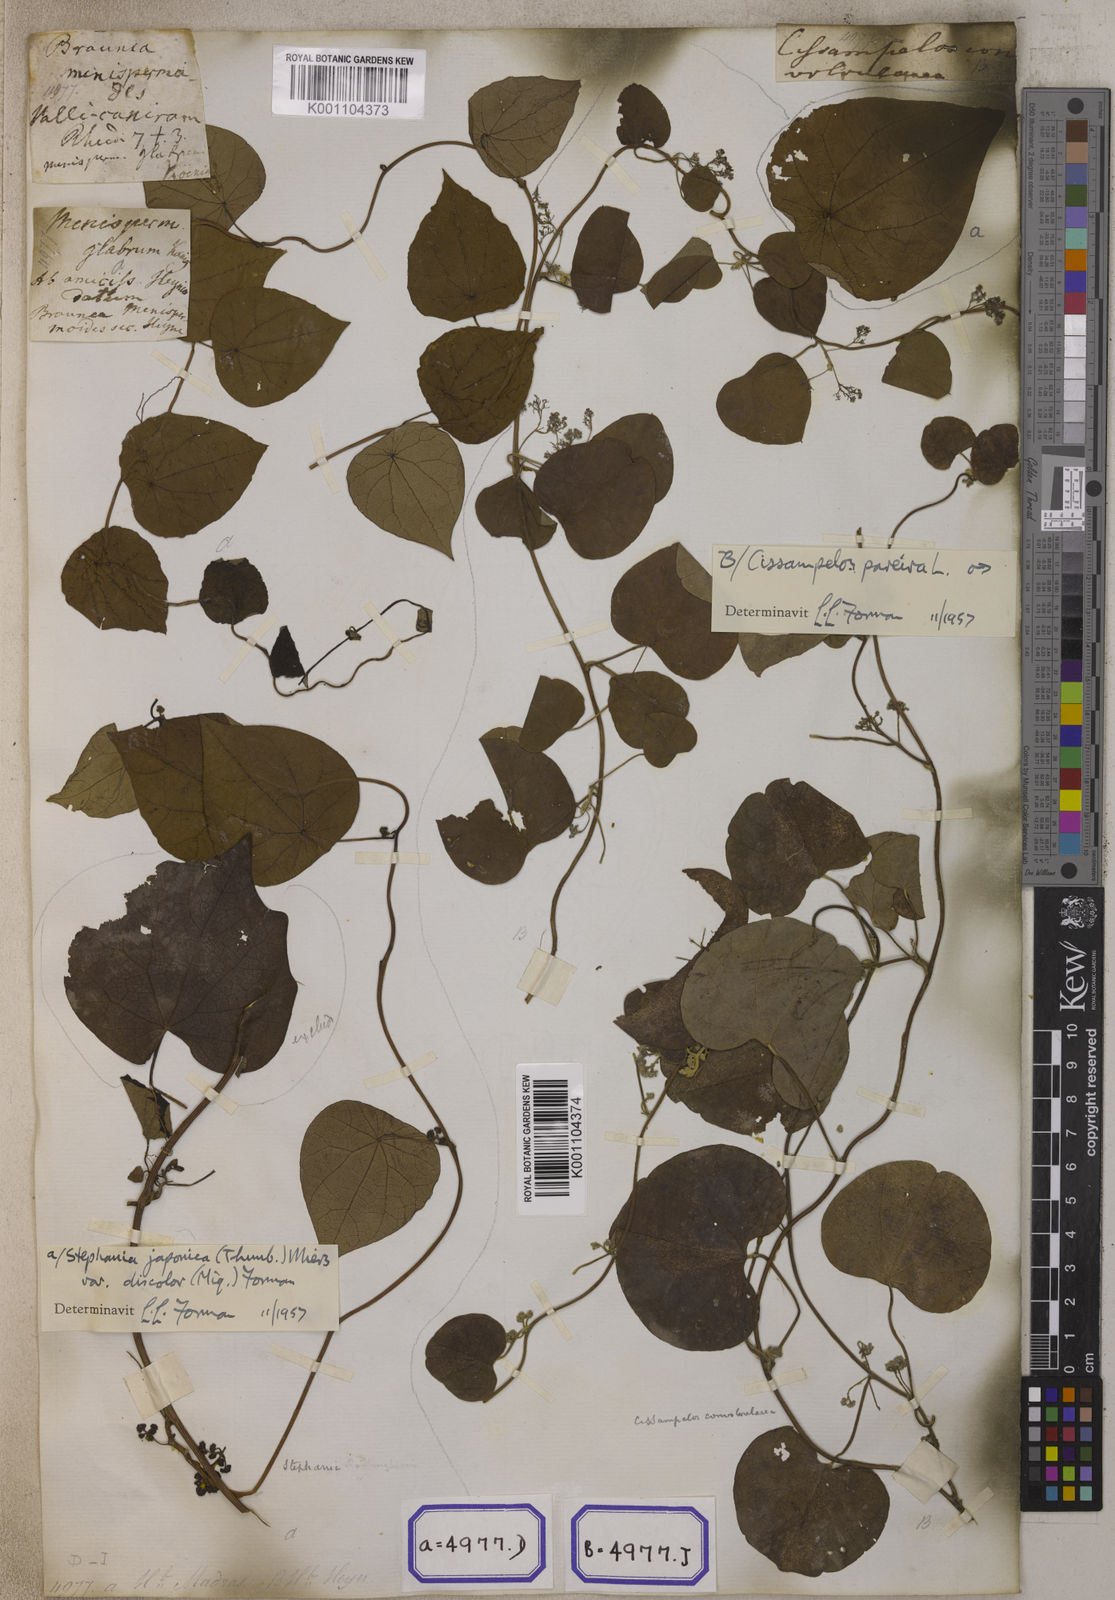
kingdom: Plantae
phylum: Tracheophyta
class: Magnoliopsida
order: Ranunculales
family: Menispermaceae
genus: Stephania
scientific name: Stephania japonica
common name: Snake vine
